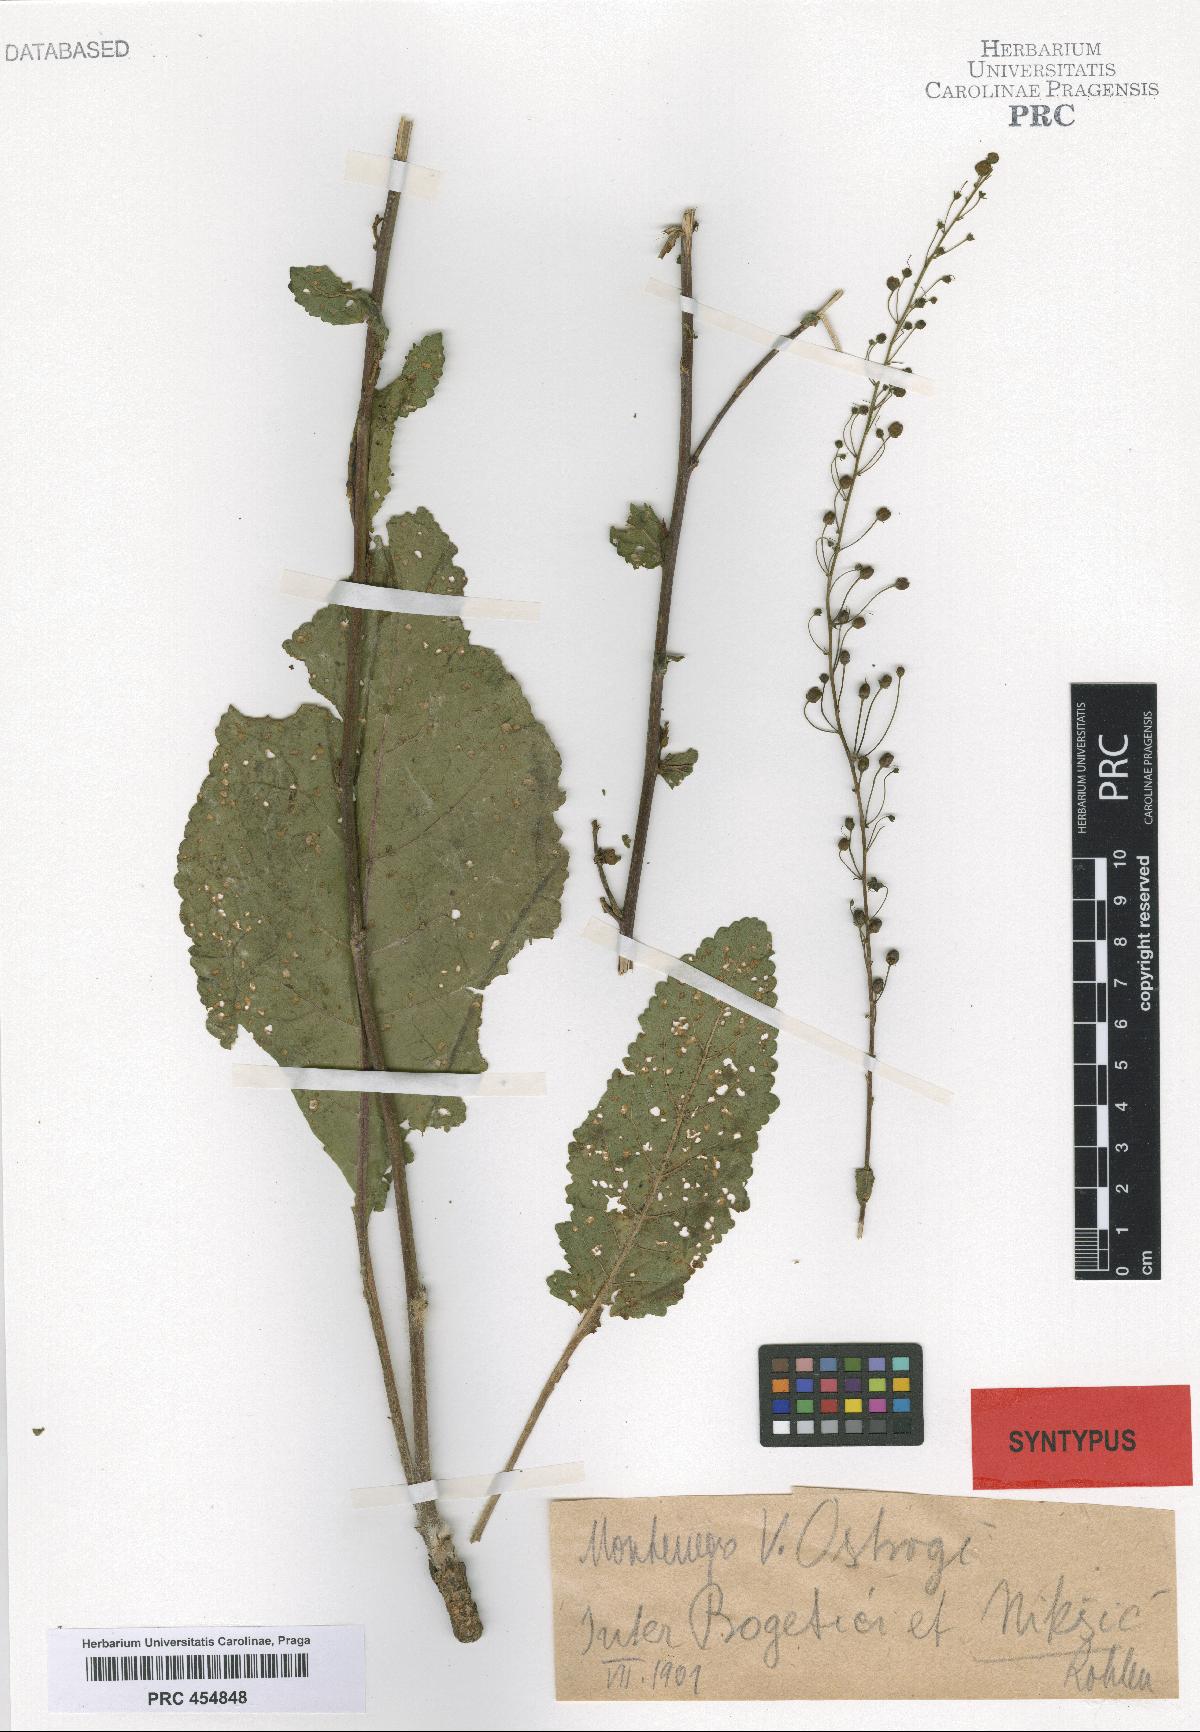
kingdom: Plantae
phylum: Tracheophyta
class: Magnoliopsida
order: Lamiales
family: Scrophulariaceae
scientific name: Scrophulariaceae
